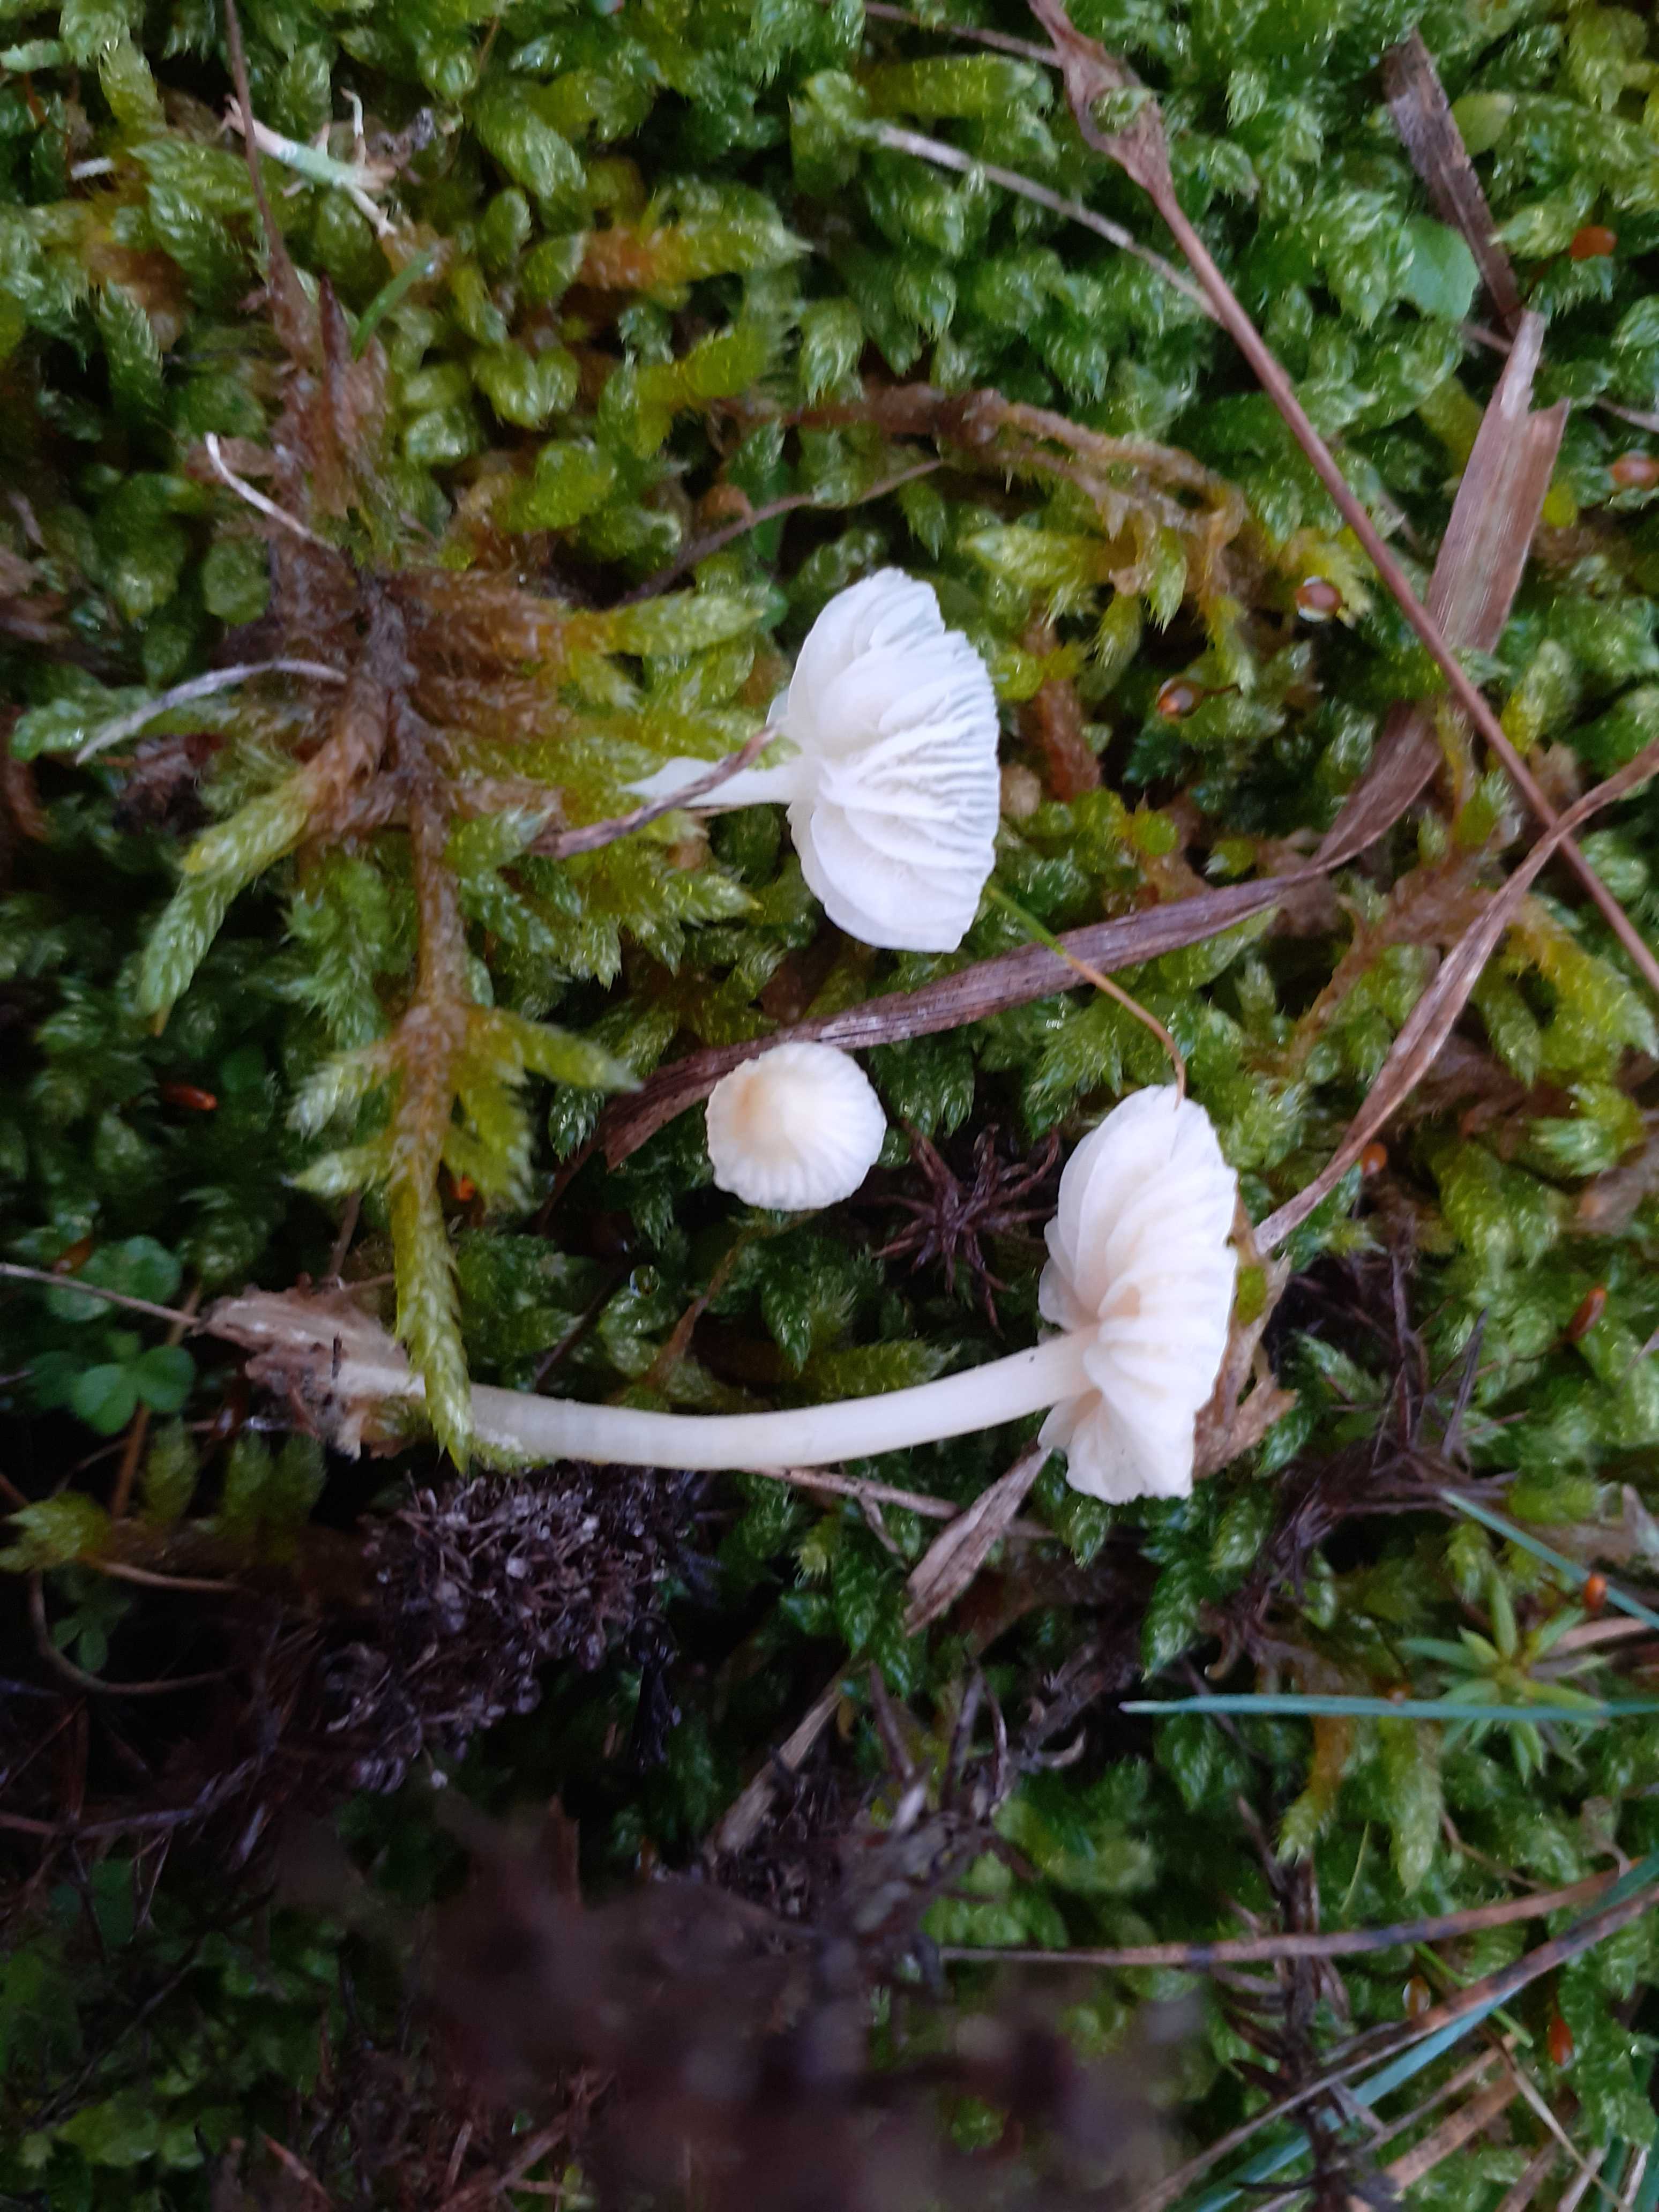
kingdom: Fungi
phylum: Basidiomycota
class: Agaricomycetes
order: Agaricales
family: Mycenaceae
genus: Atheniella
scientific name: Atheniella flavoalba
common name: gulhvid huesvamp
